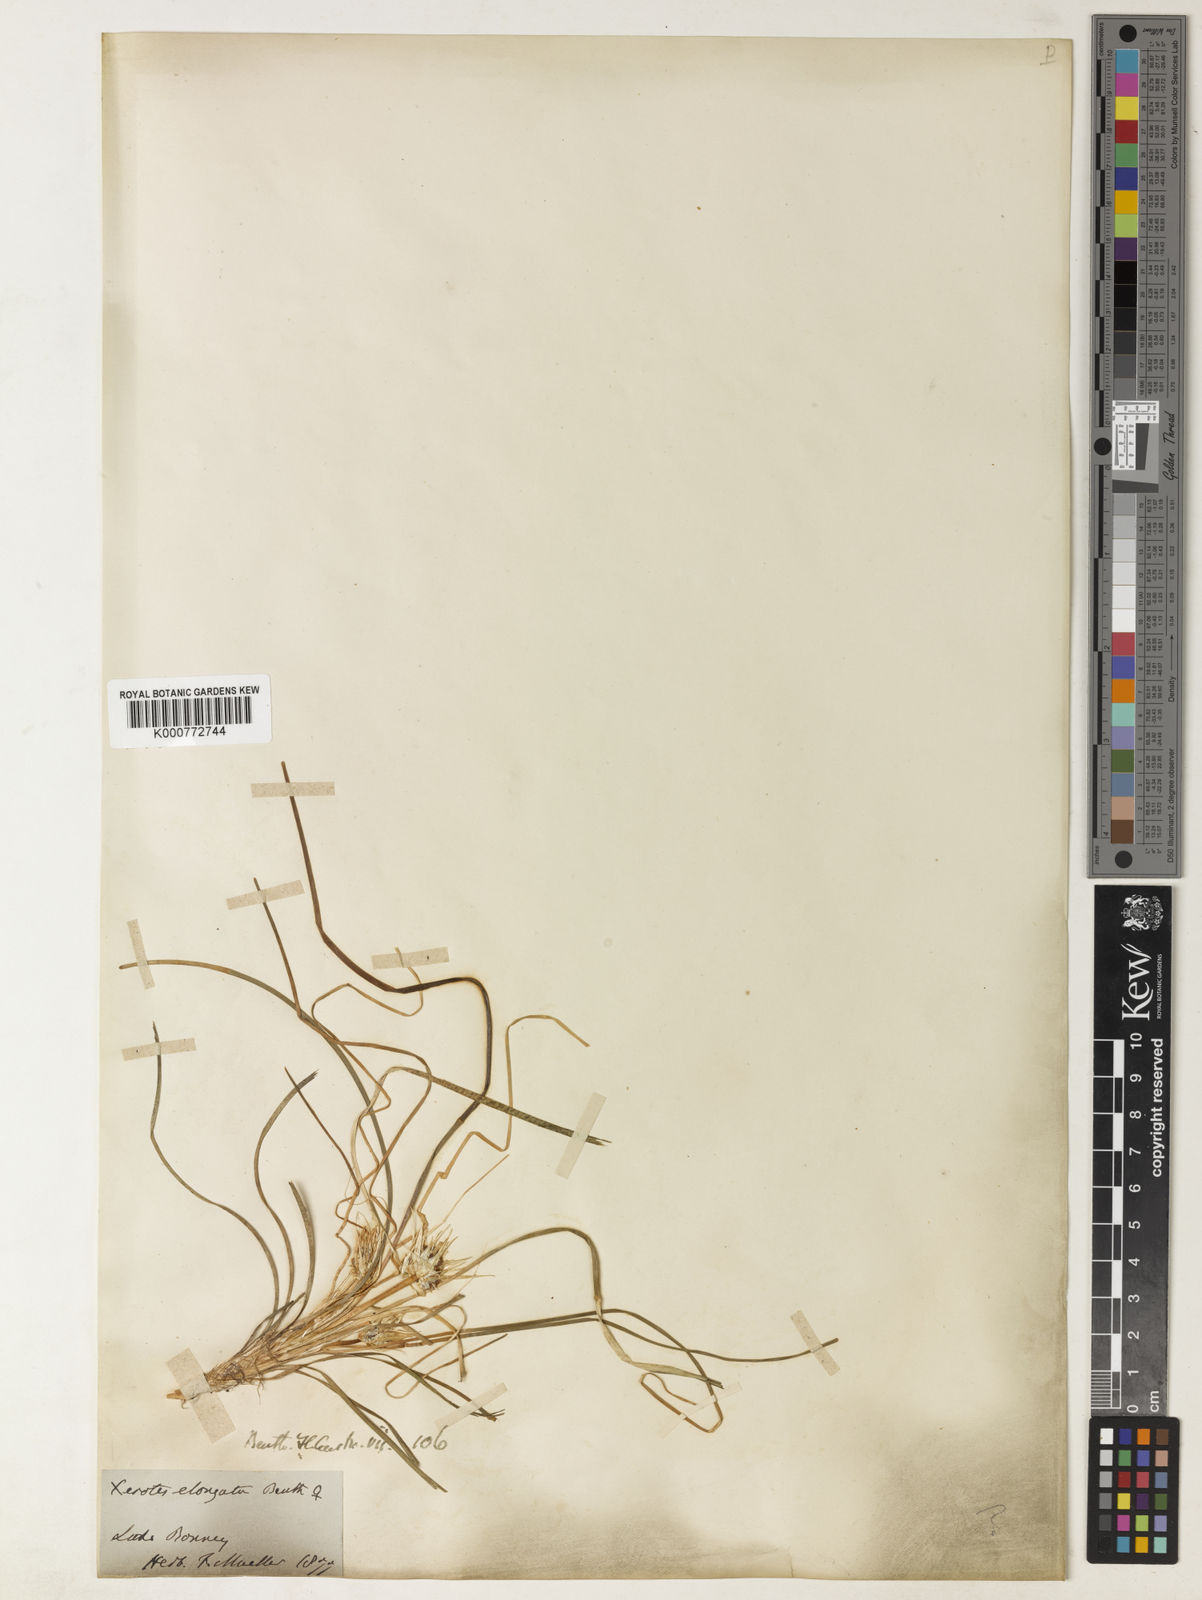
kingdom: Plantae
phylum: Tracheophyta
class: Liliopsida
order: Asparagales
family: Asparagaceae
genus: Lomandra
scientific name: Lomandra elongata
